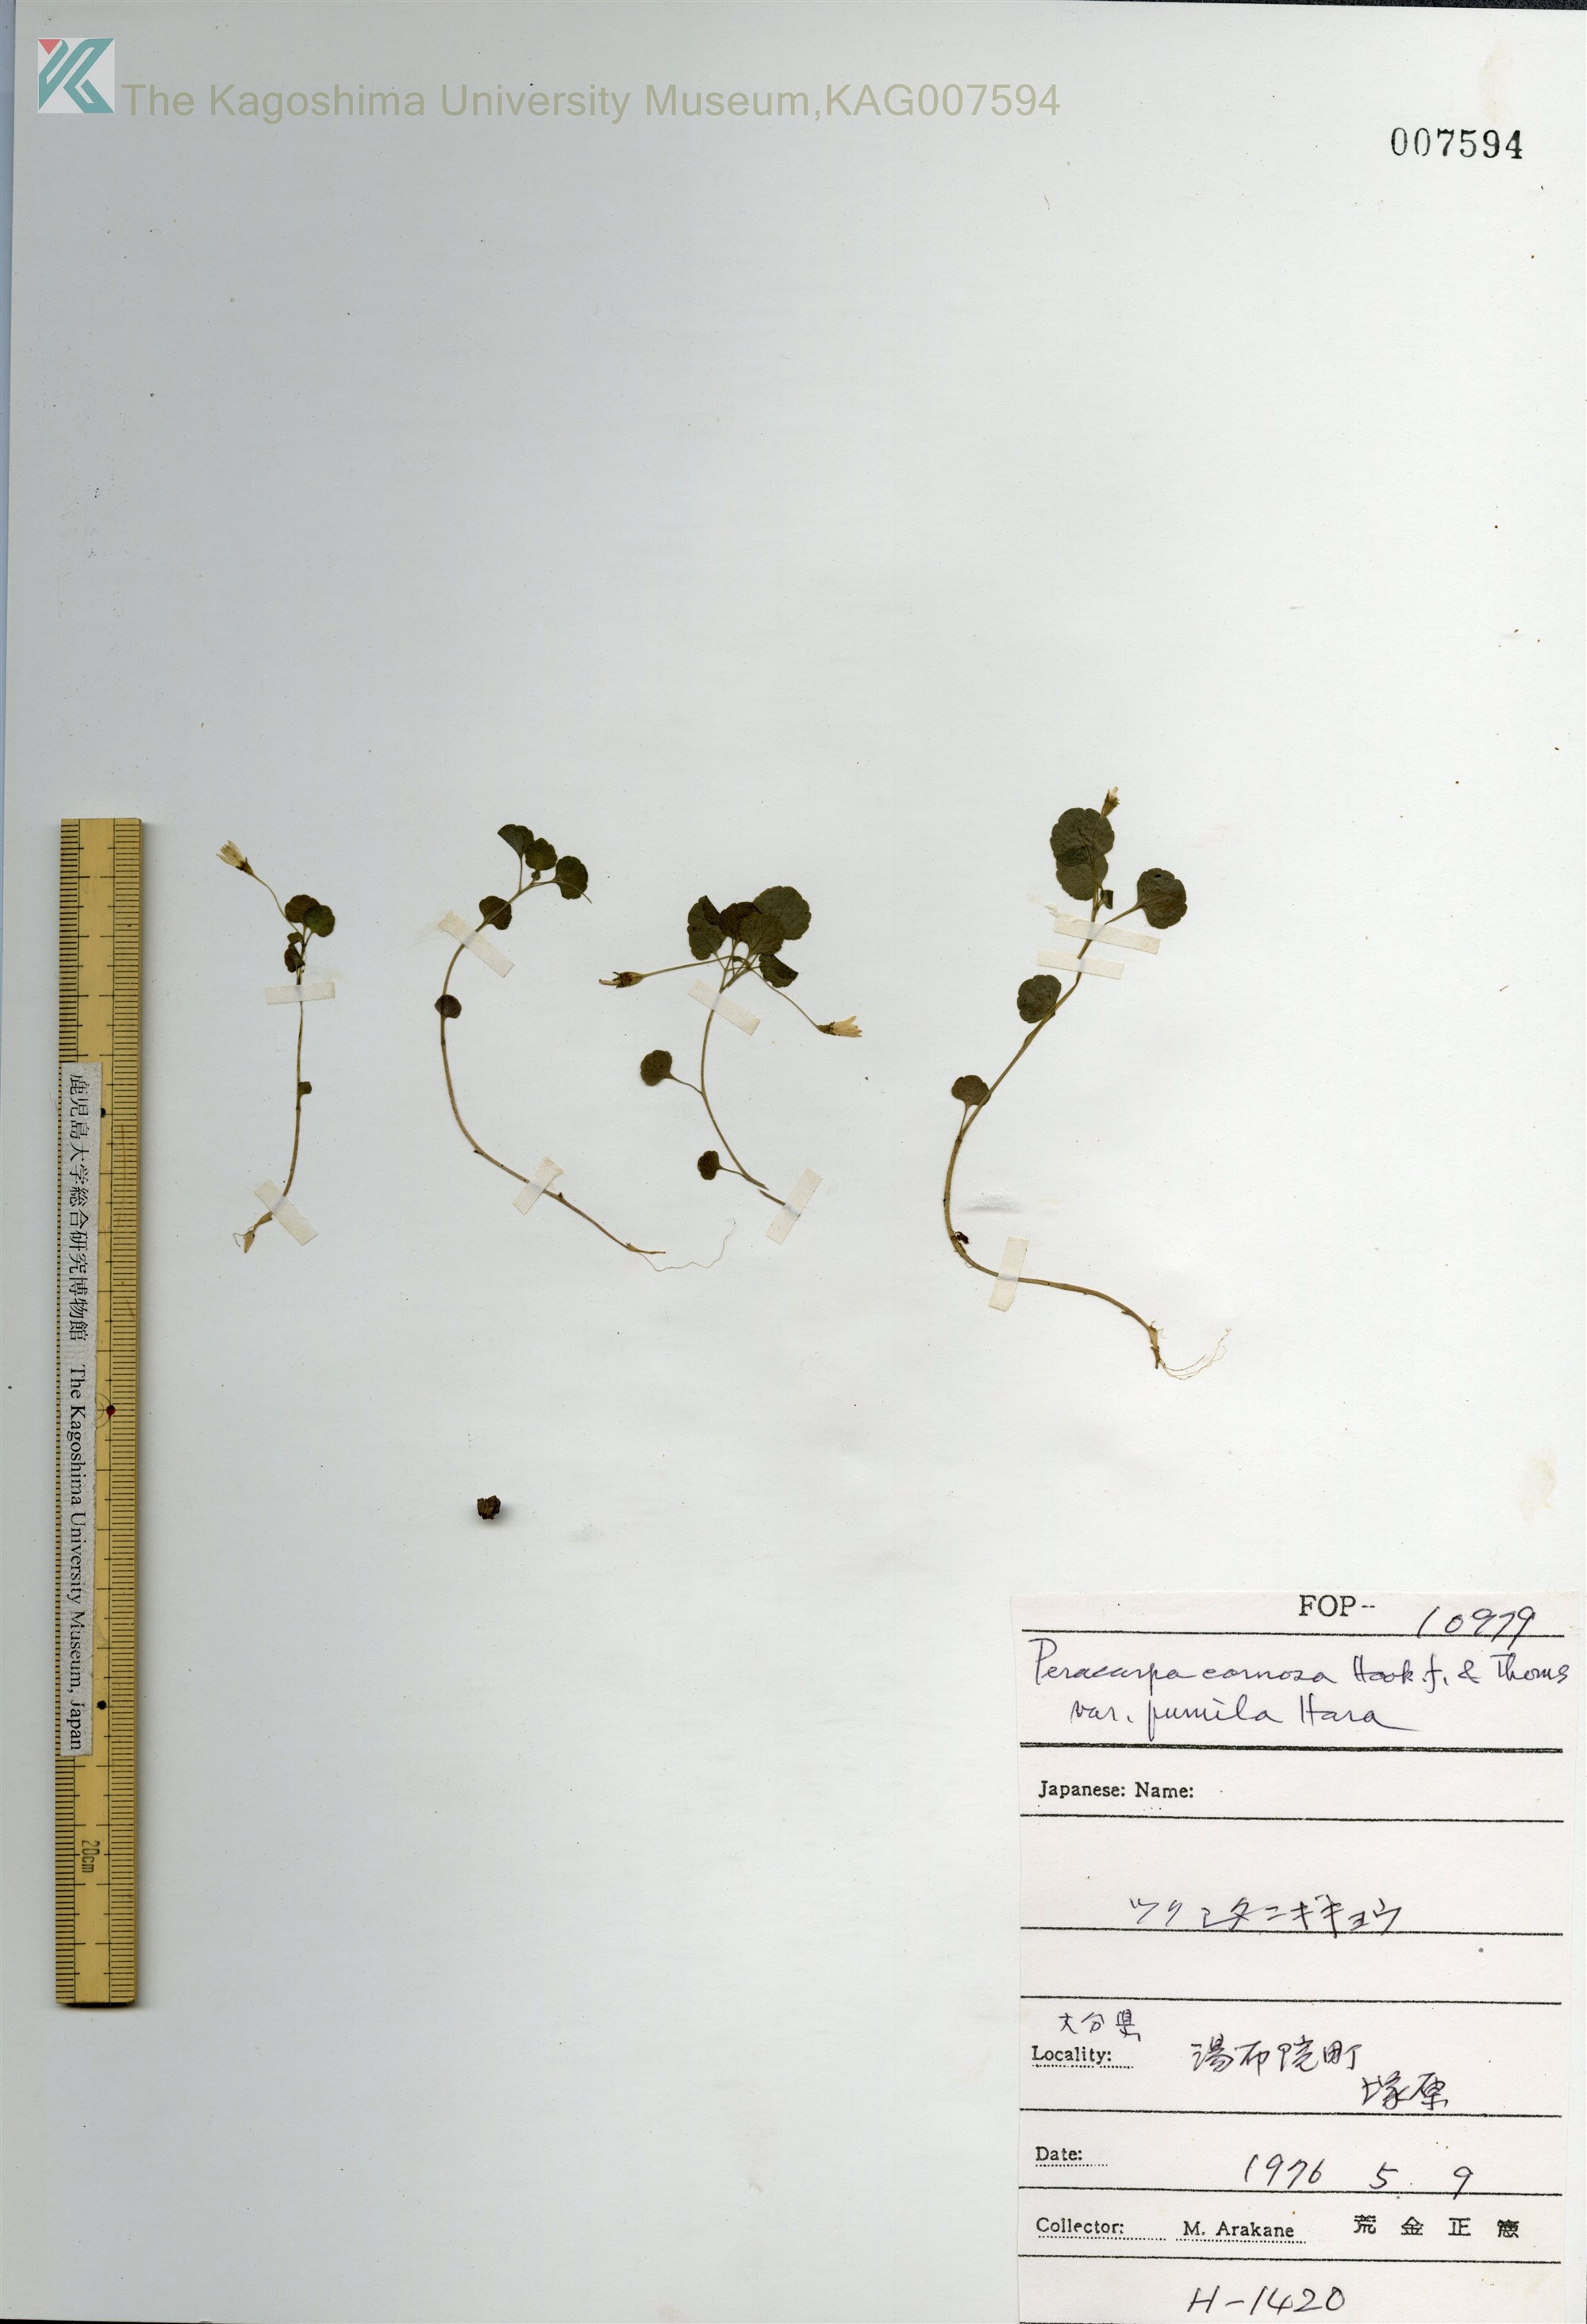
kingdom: Plantae
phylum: Tracheophyta
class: Magnoliopsida
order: Asterales
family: Campanulaceae
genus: Peracarpa
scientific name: Peracarpa carnosa
